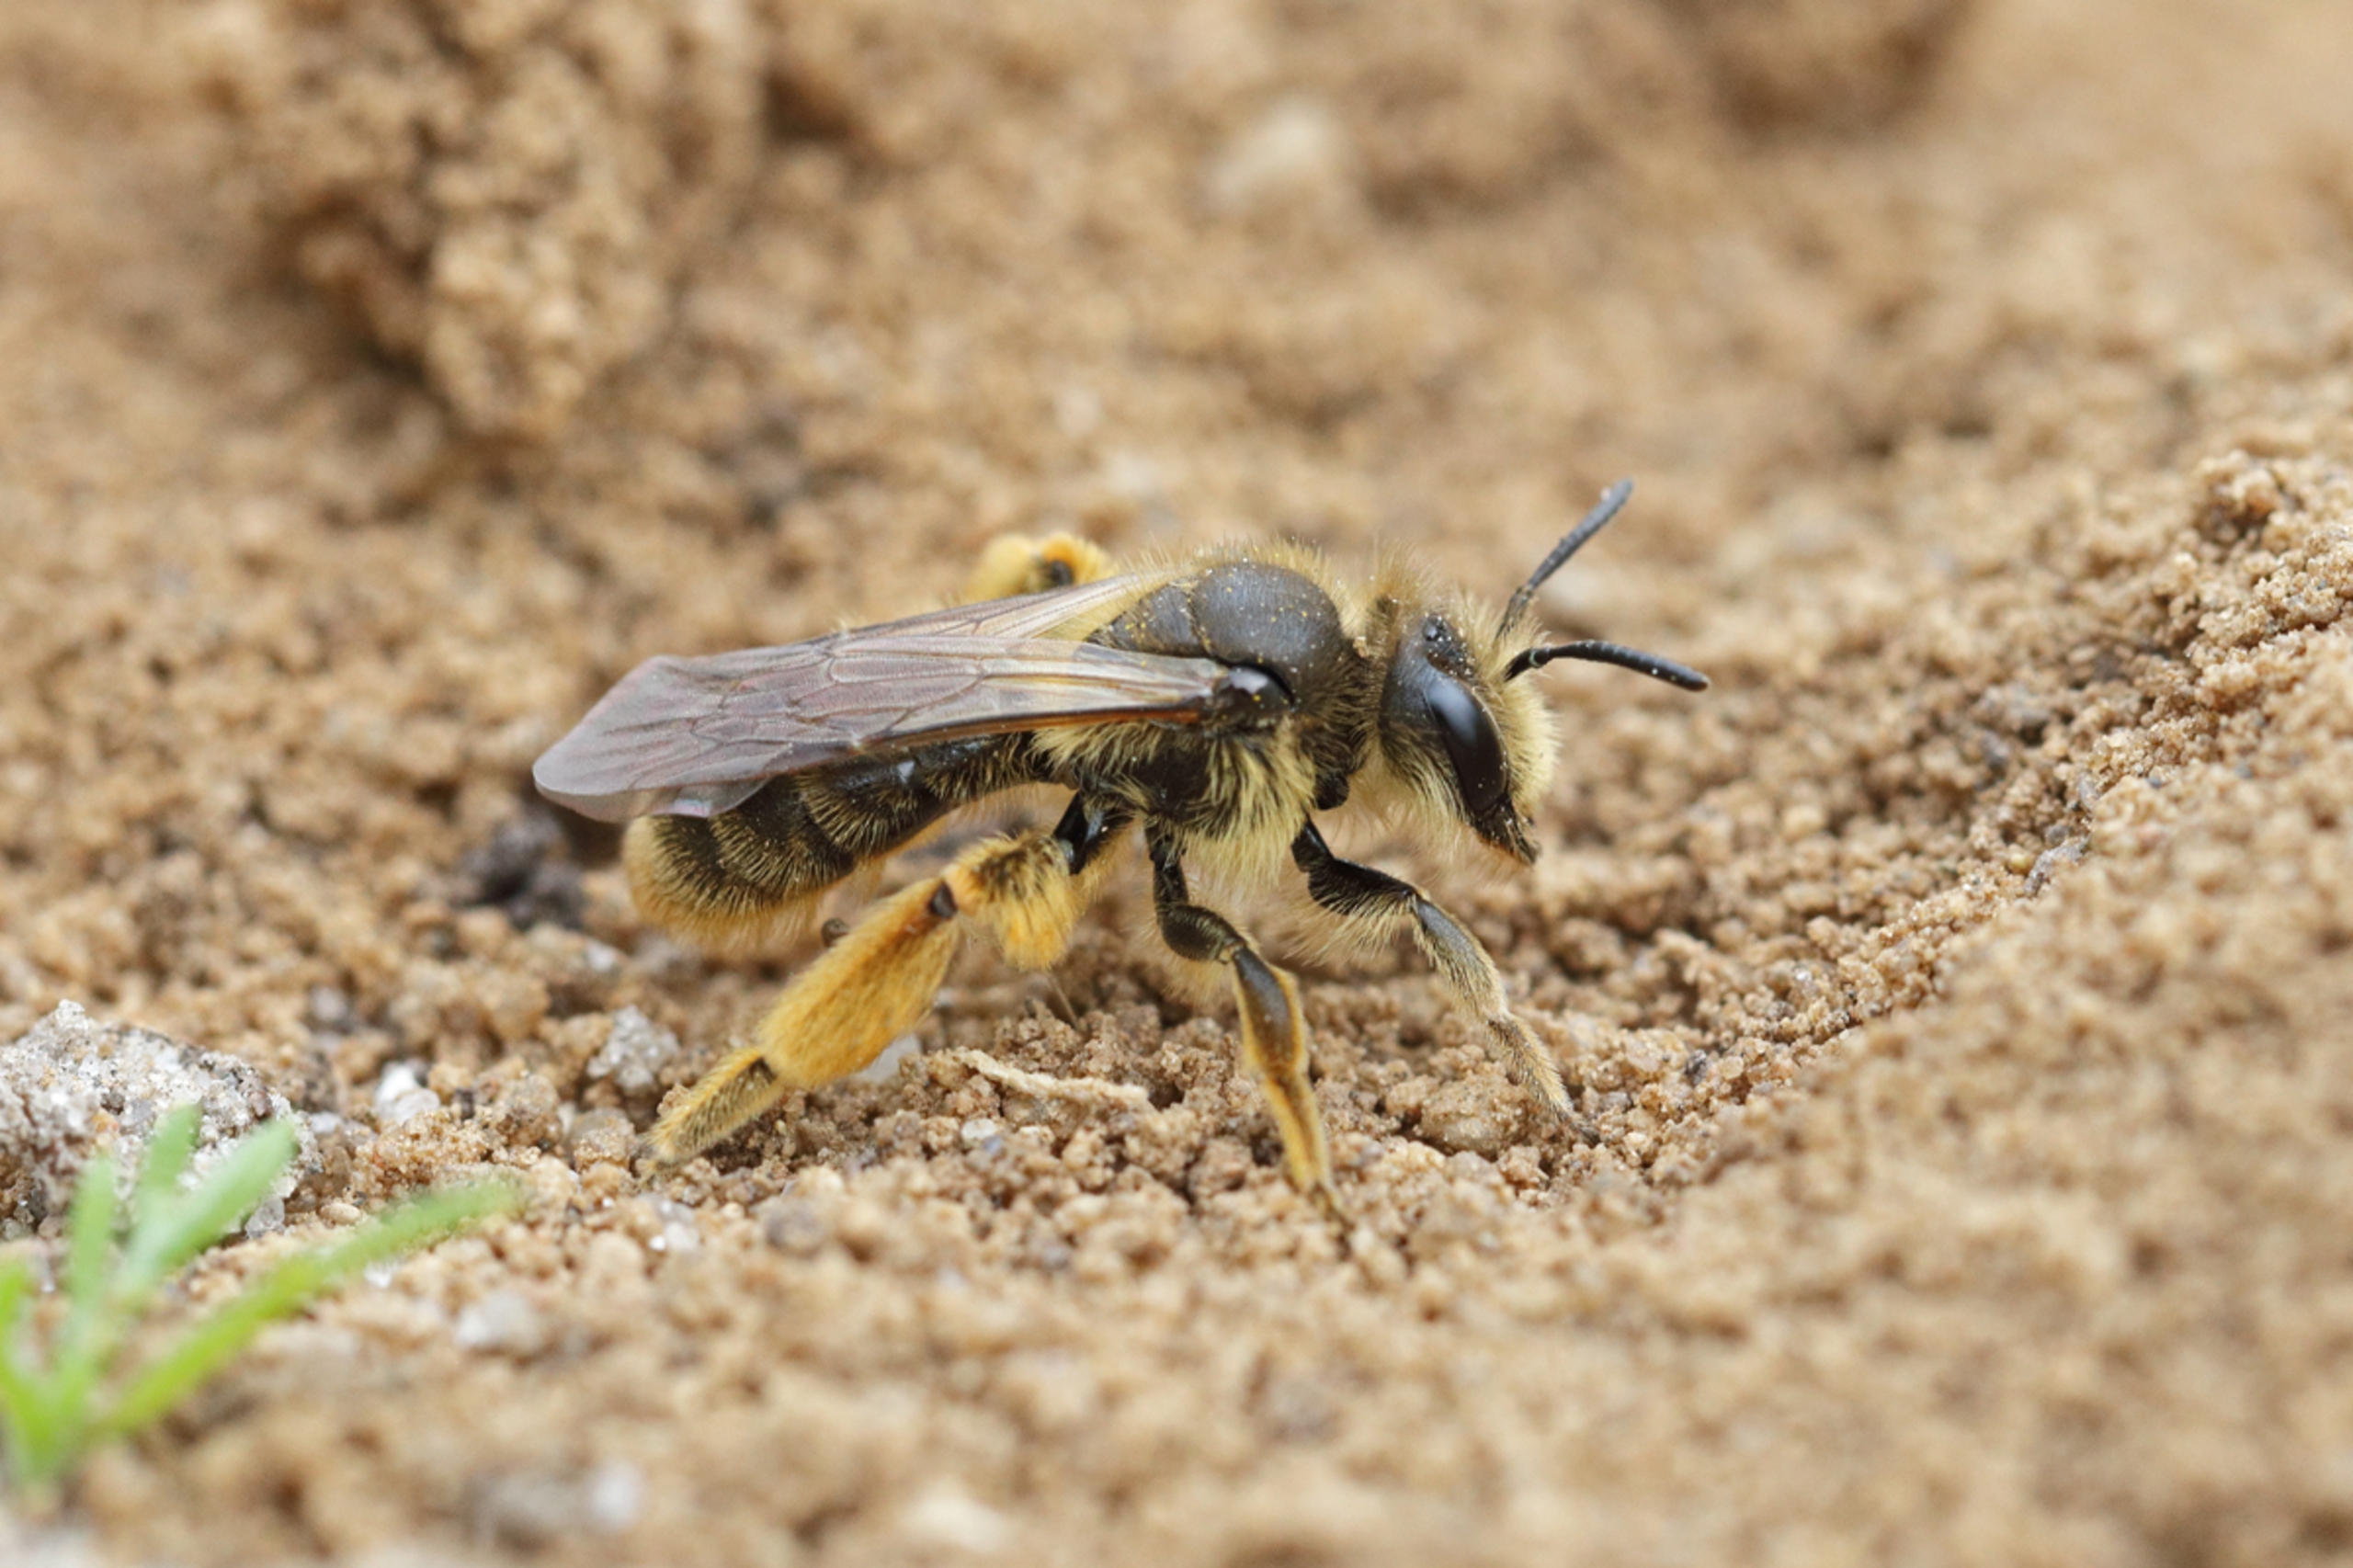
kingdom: Animalia
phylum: Arthropoda
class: Insecta
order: Hymenoptera
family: Andrenidae
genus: Andrena
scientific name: Andrena humilis
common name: Brunhalet jordbi
